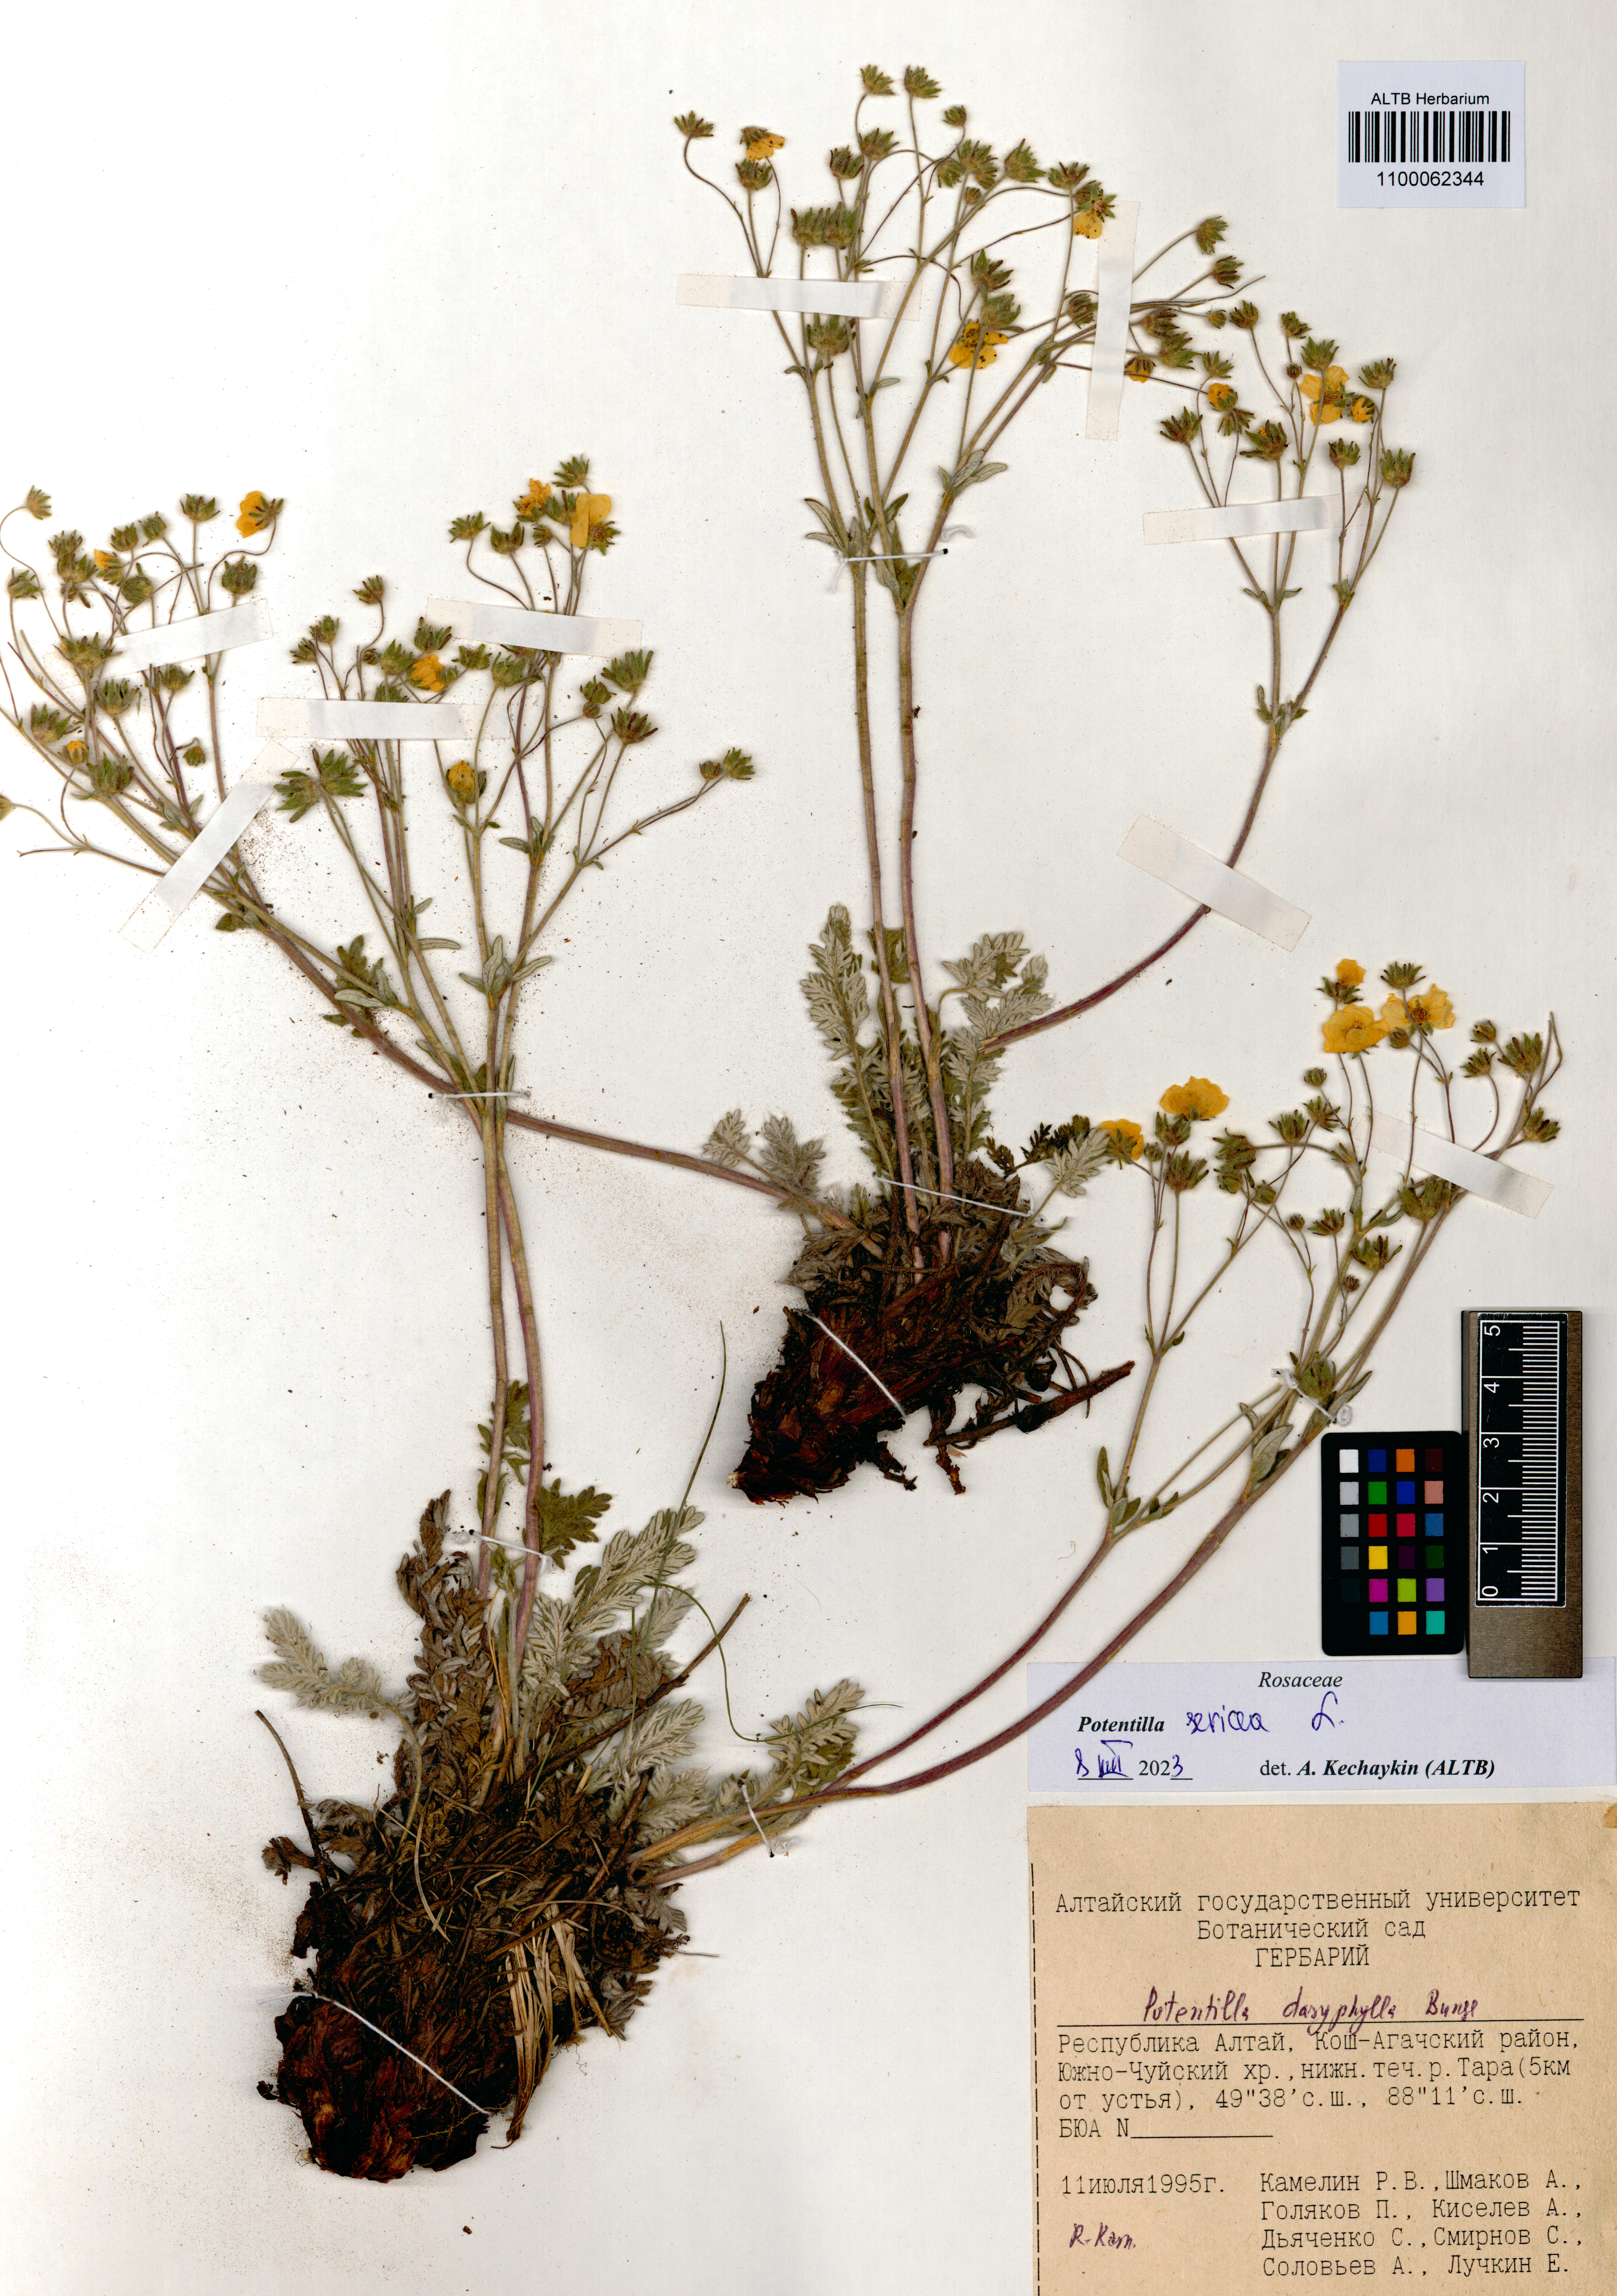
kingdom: Plantae
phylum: Tracheophyta
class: Magnoliopsida
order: Rosales
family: Rosaceae
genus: Potentilla
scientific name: Potentilla sericea
